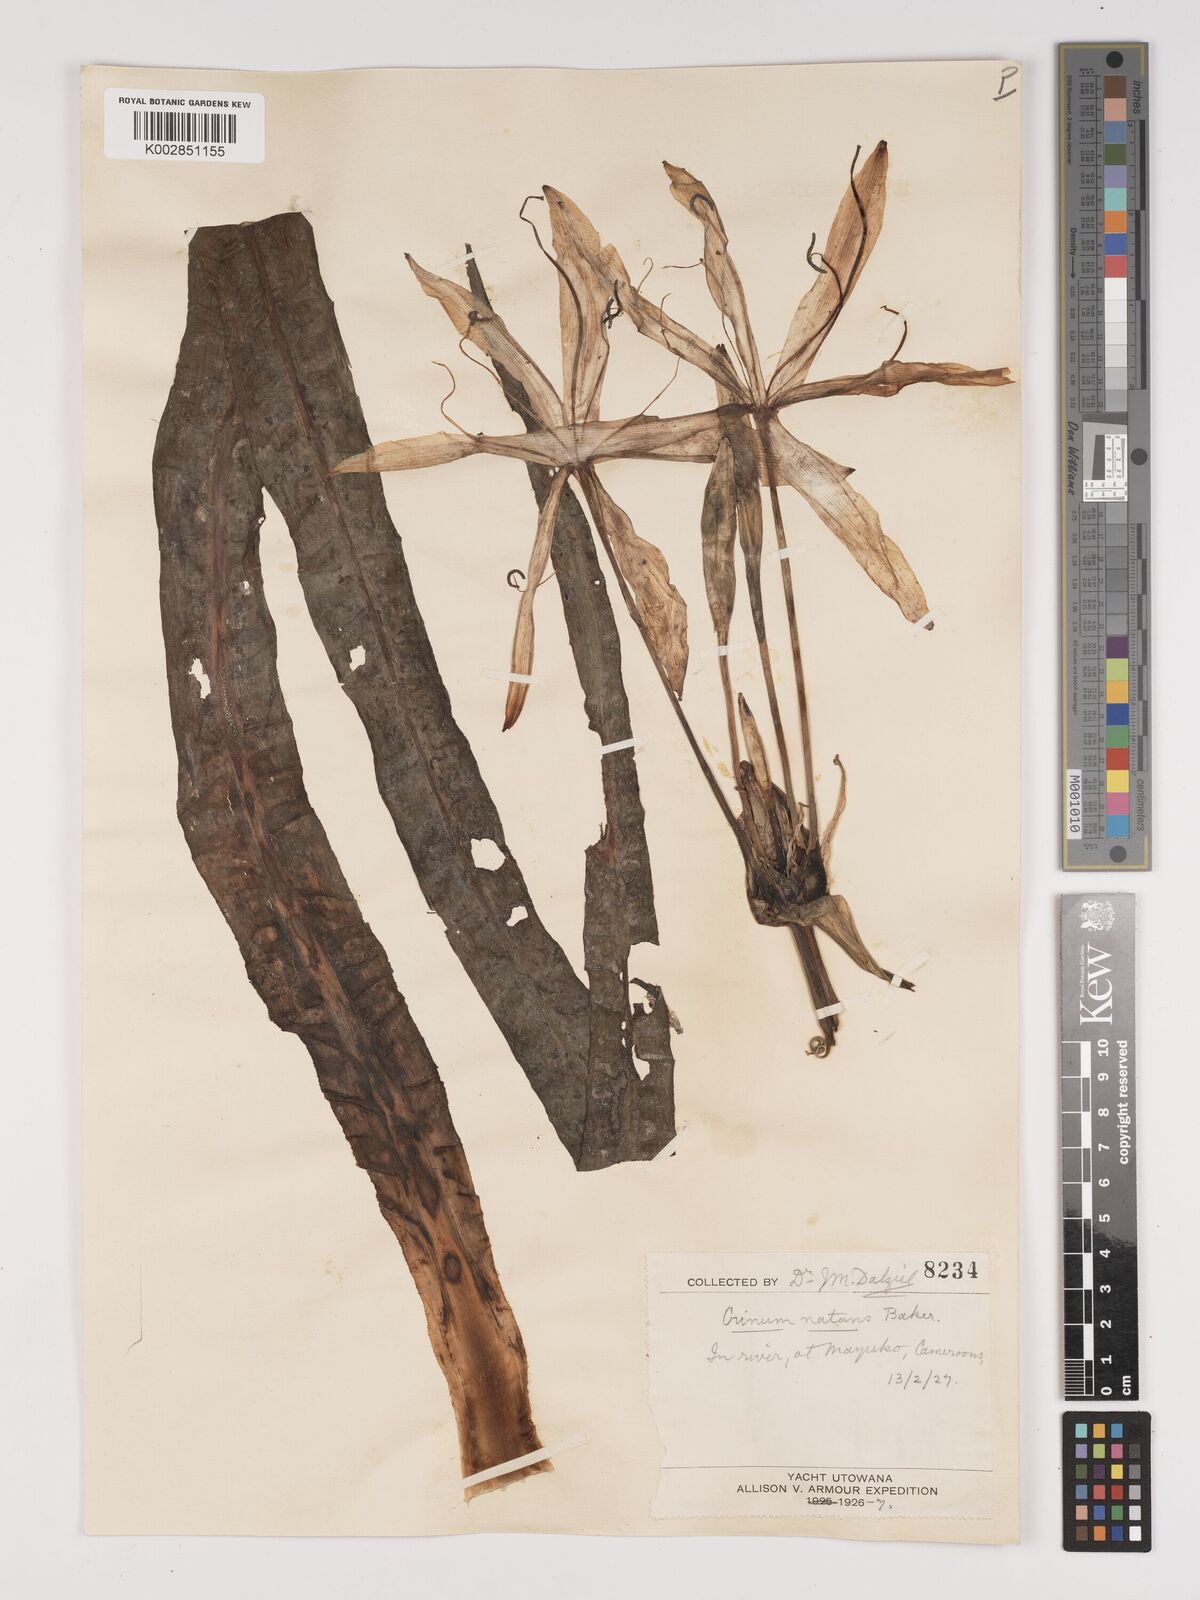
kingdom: Plantae
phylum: Tracheophyta
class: Liliopsida
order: Asparagales
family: Amaryllidaceae
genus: Crinum
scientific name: Crinum natans
